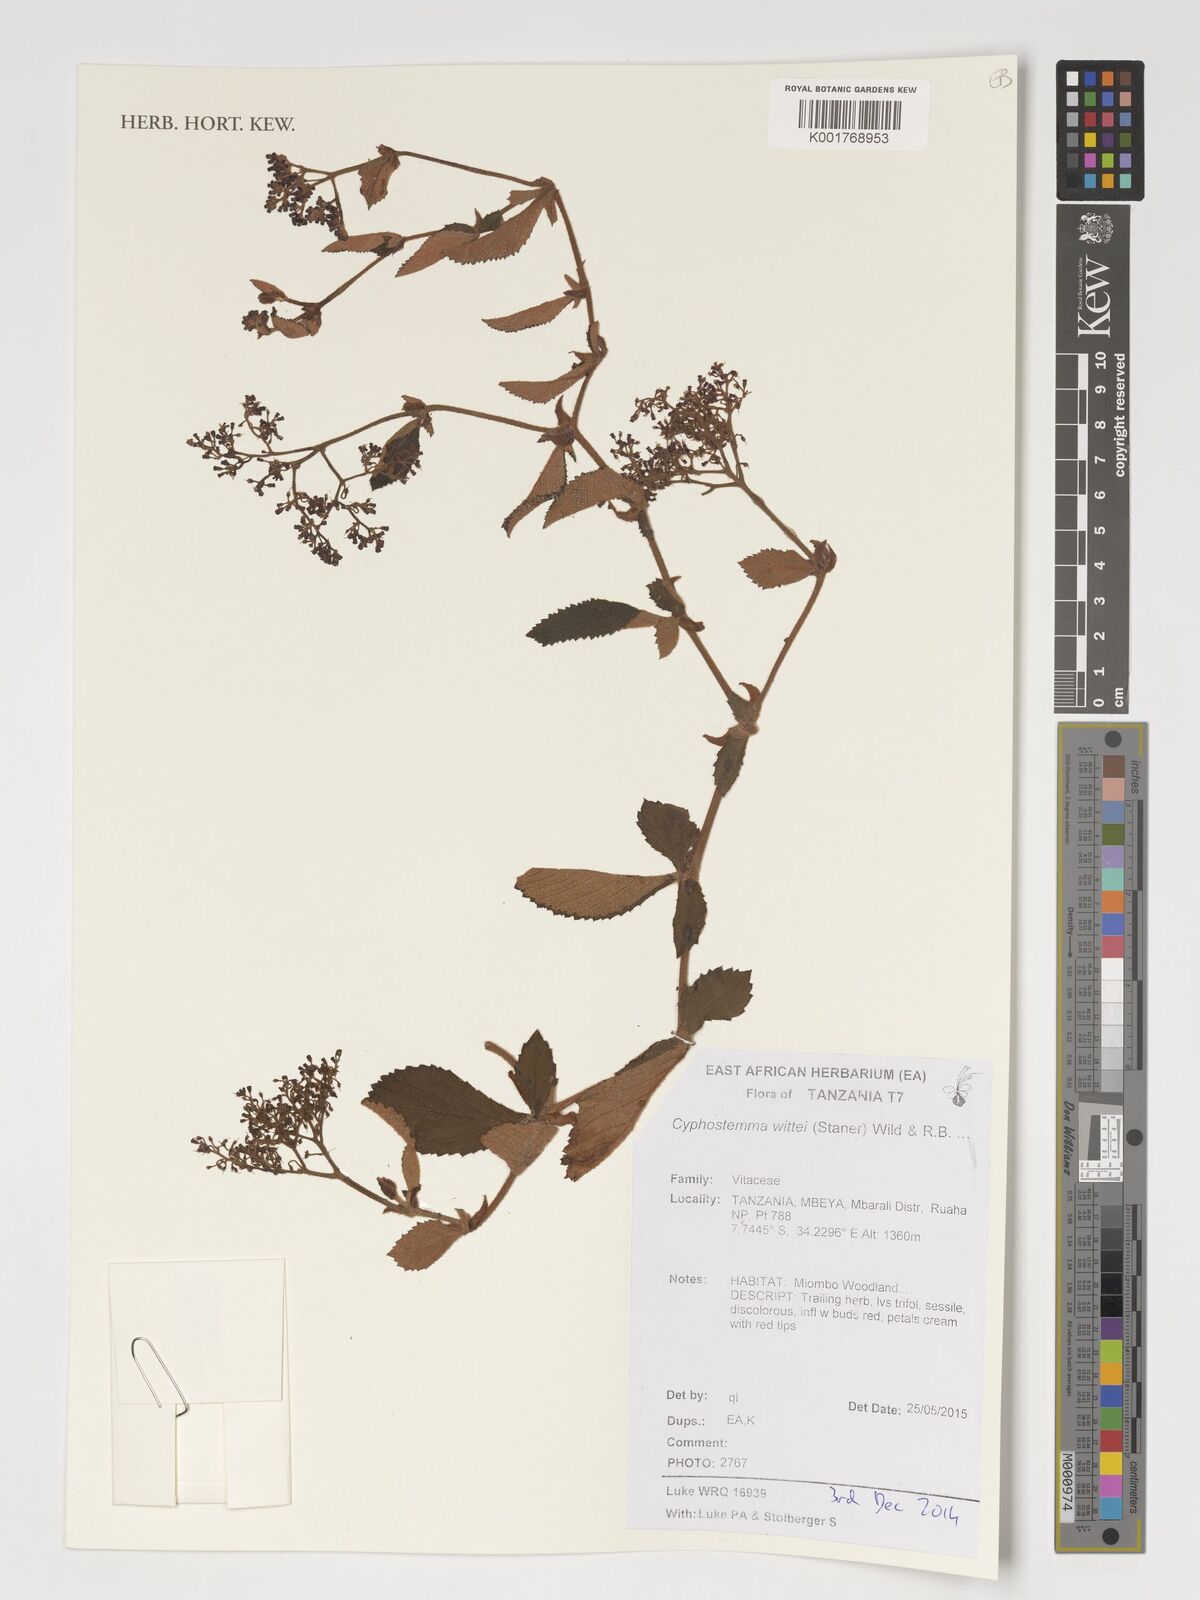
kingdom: Plantae
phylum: Tracheophyta
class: Magnoliopsida
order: Vitales
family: Vitaceae
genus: Cyphostemma
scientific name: Cyphostemma wittei
